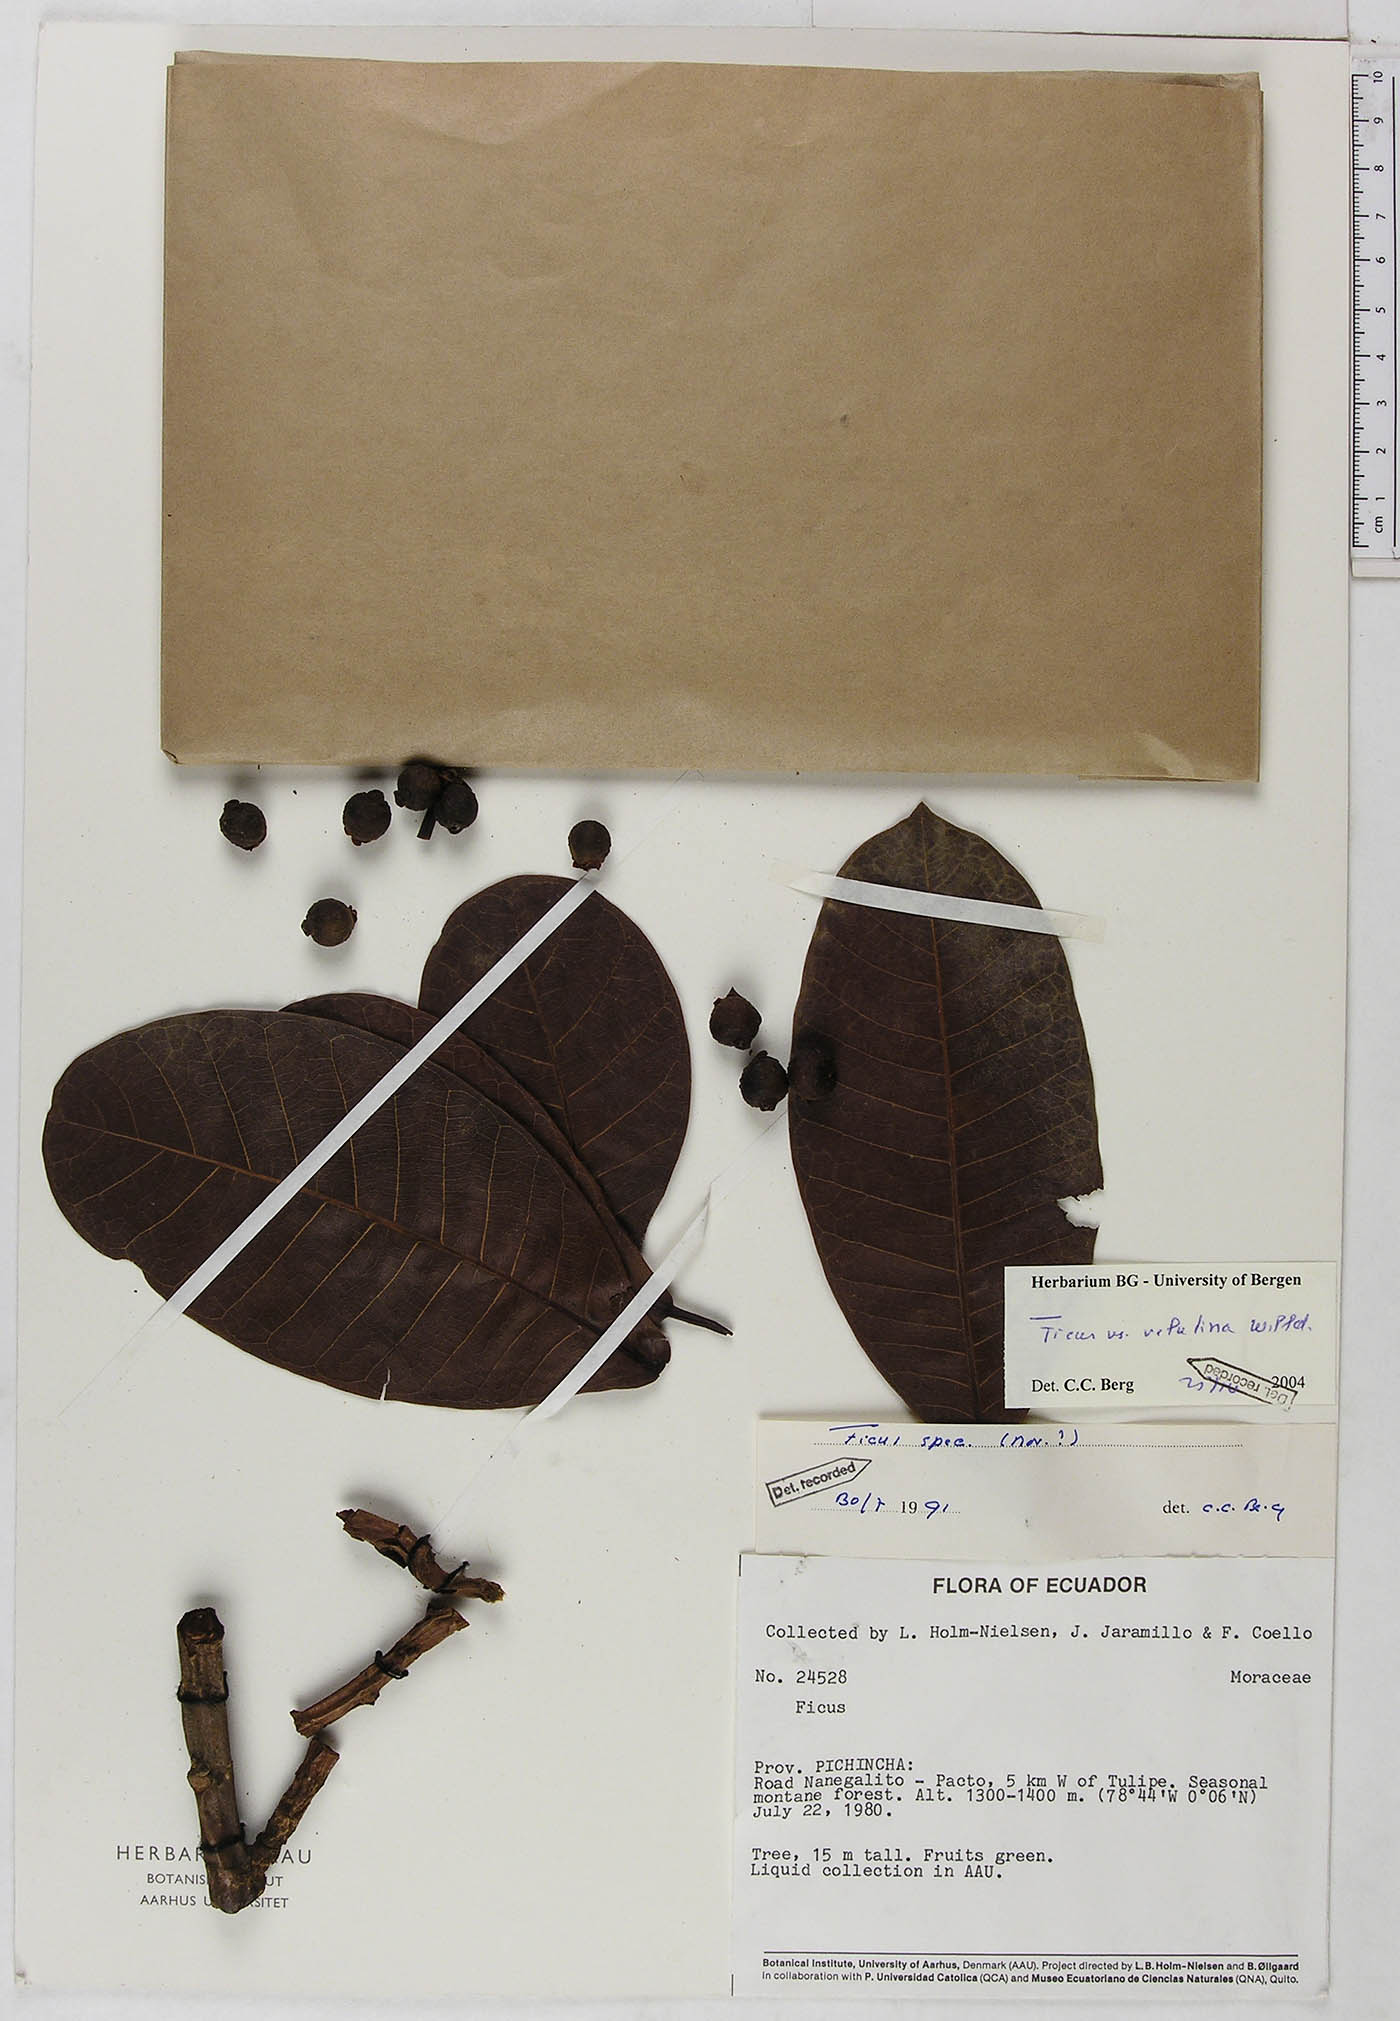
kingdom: Plantae
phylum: Tracheophyta
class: Magnoliopsida
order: Rosales
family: Moraceae
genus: Ficus
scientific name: Ficus velutina
